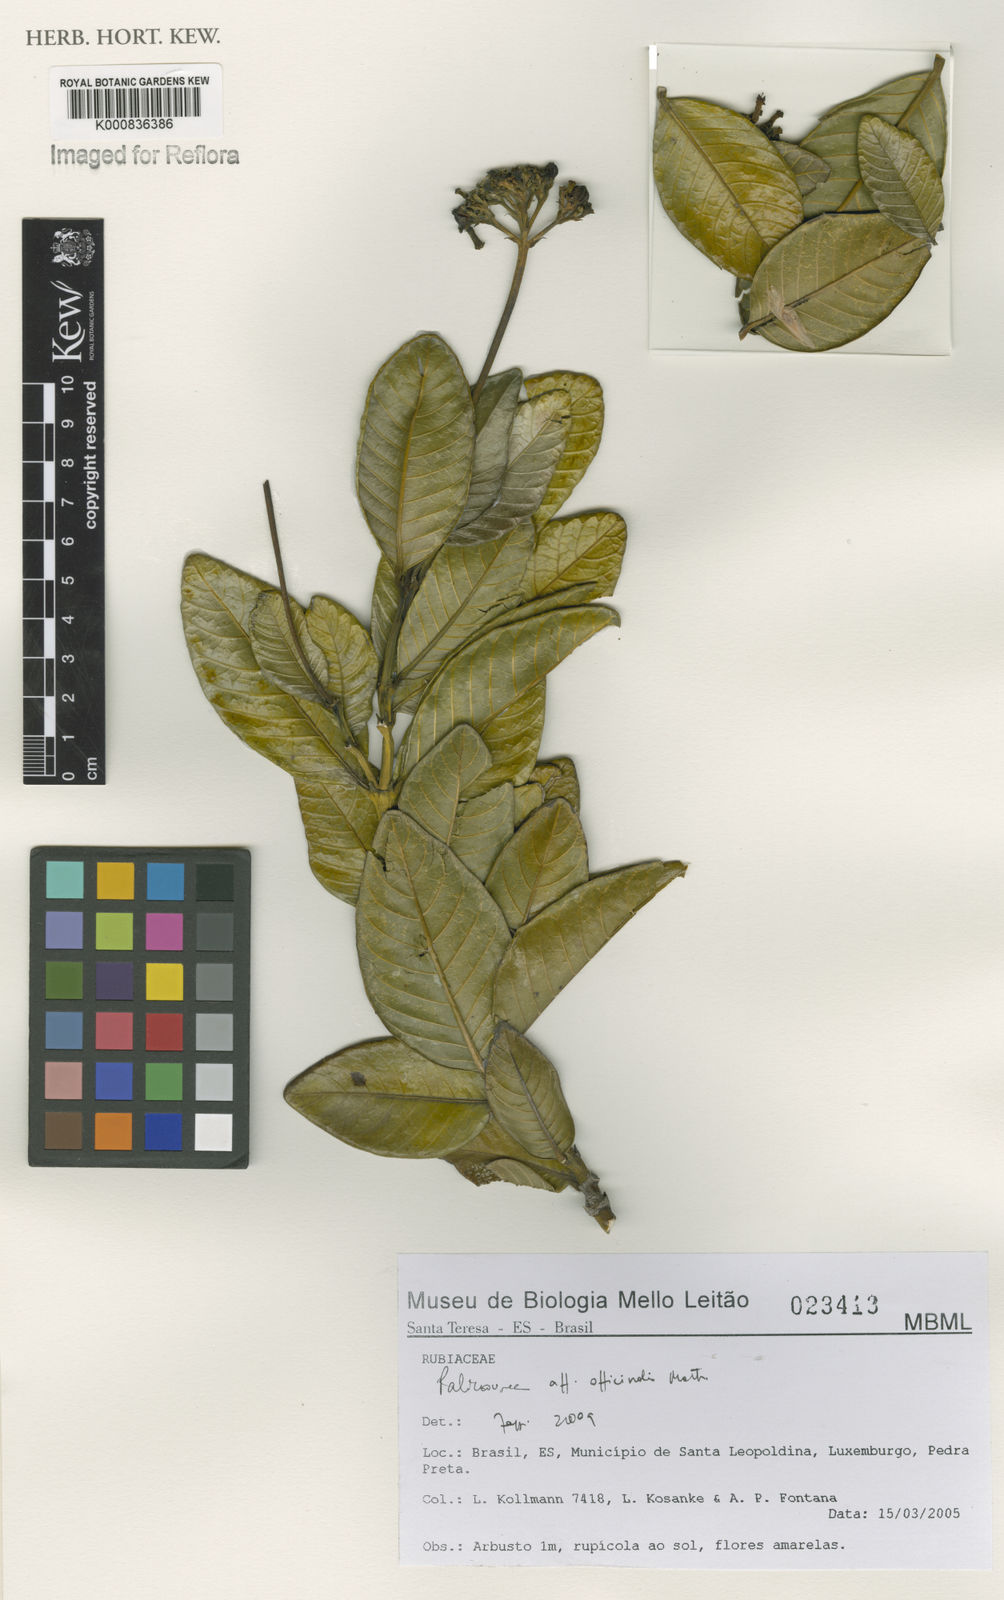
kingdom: Plantae
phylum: Tracheophyta
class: Magnoliopsida
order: Gentianales
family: Rubiaceae
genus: Palicourea
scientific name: Palicourea officinalis
